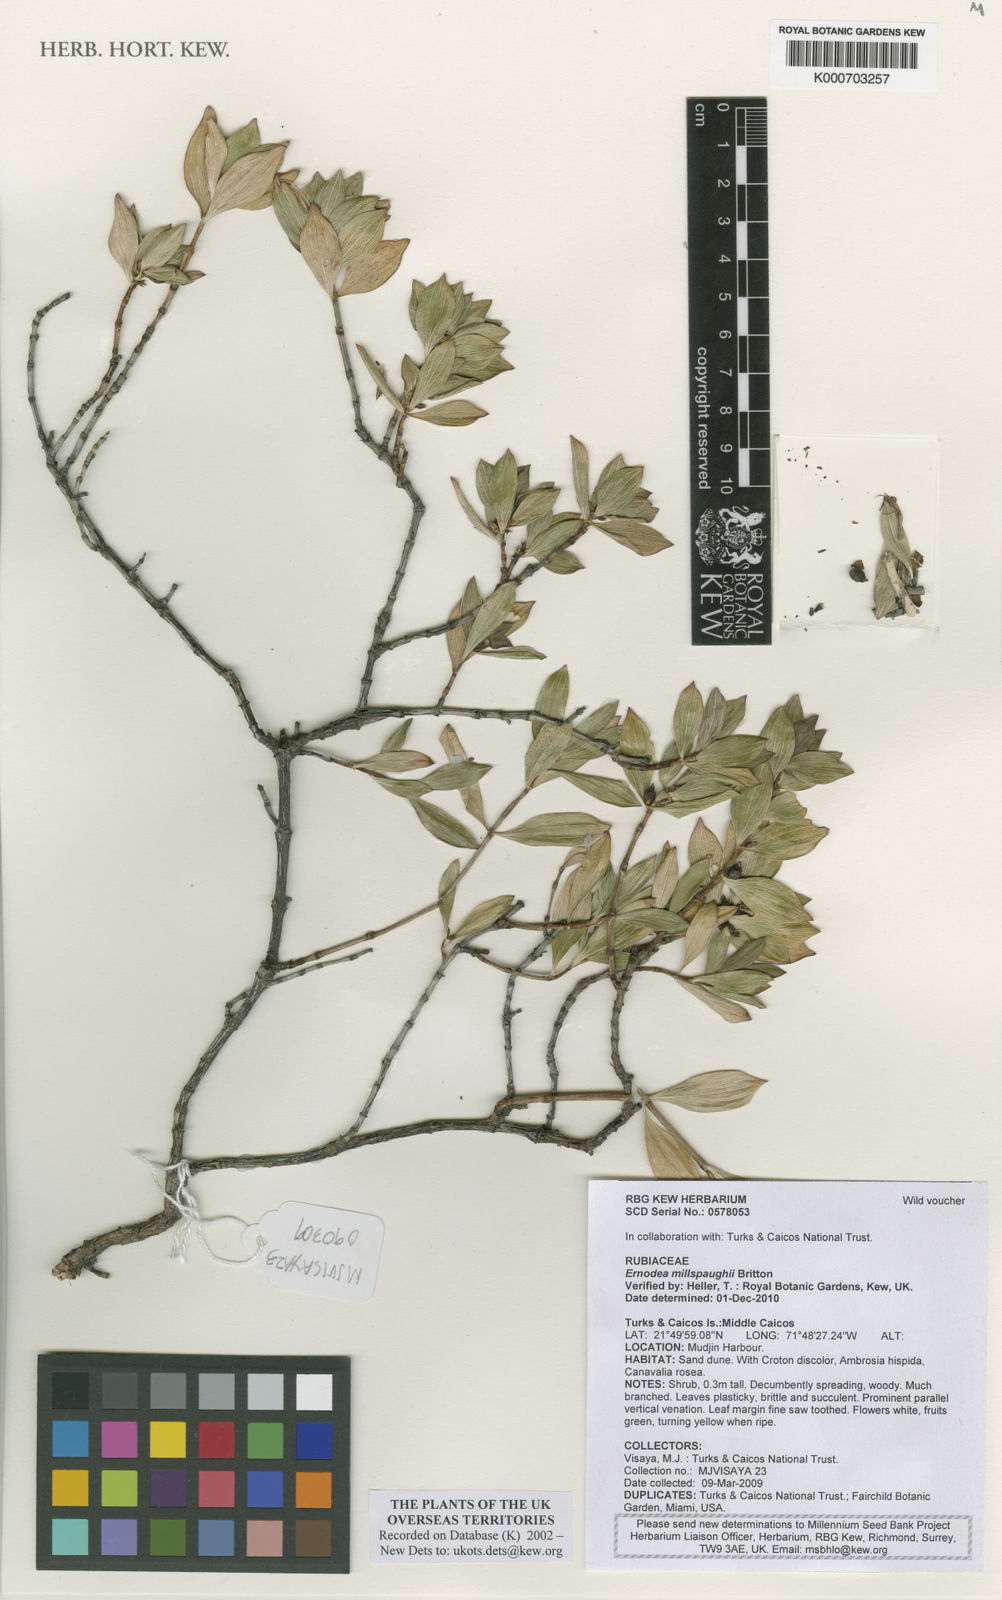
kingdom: Plantae
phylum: Tracheophyta
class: Magnoliopsida
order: Gentianales
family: Rubiaceae
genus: Ernodea
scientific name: Ernodea littoralis
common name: Beach creeper
